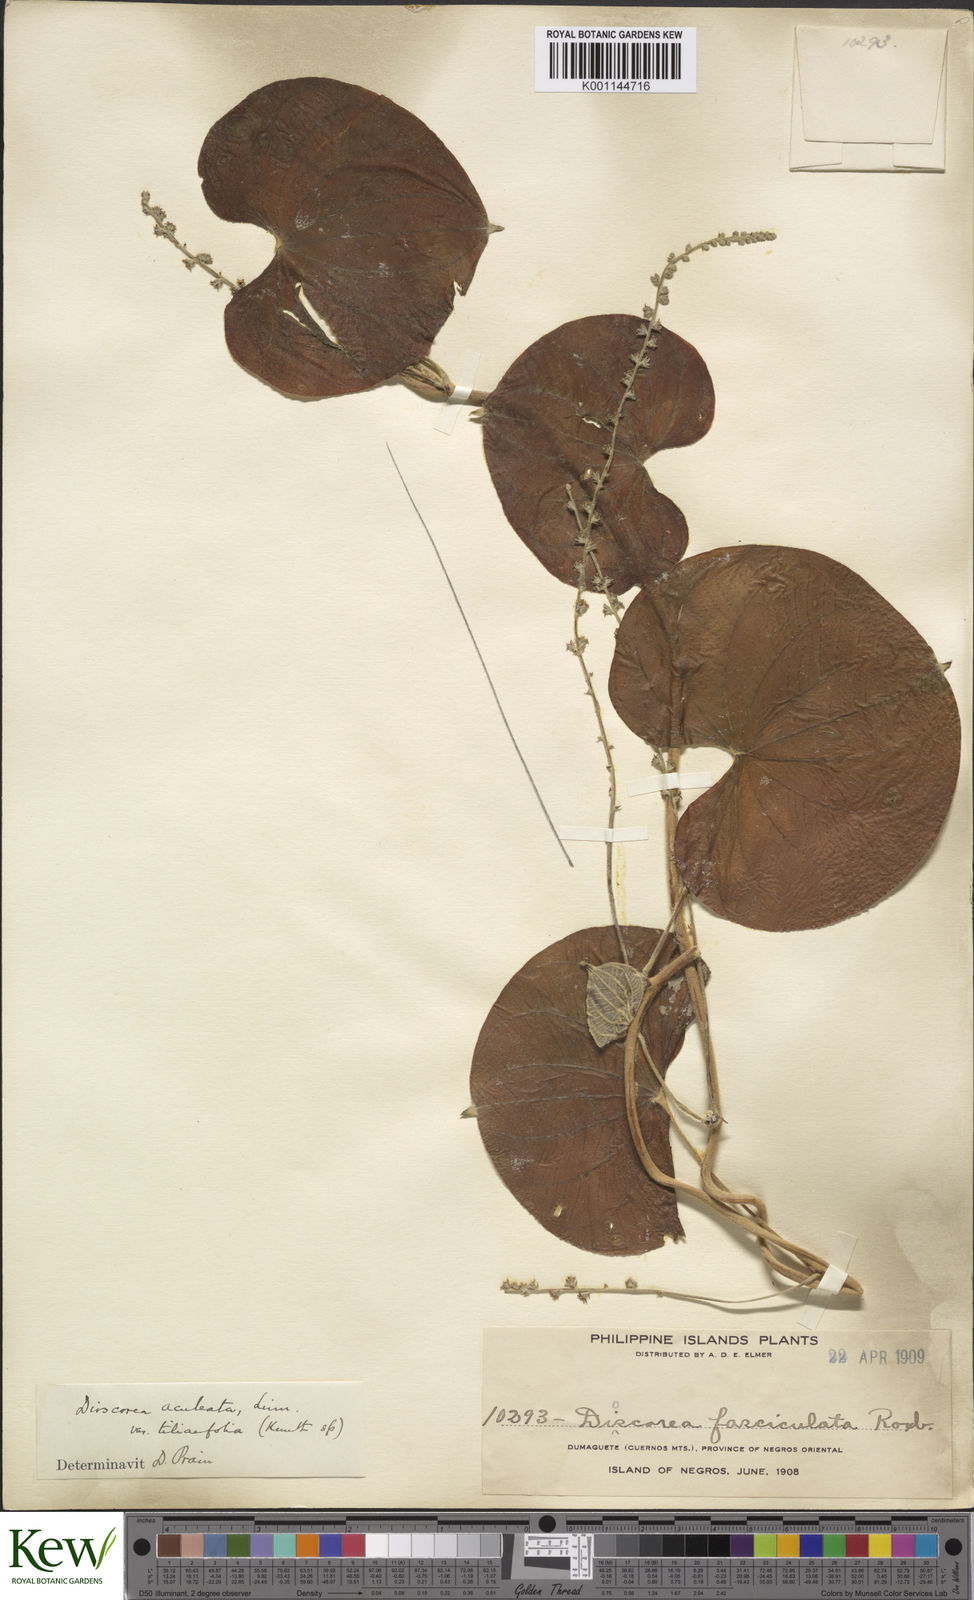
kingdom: Plantae
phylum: Tracheophyta
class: Liliopsida
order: Dioscoreales
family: Dioscoreaceae
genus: Dioscorea
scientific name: Dioscorea esculenta
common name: Chinese yam
